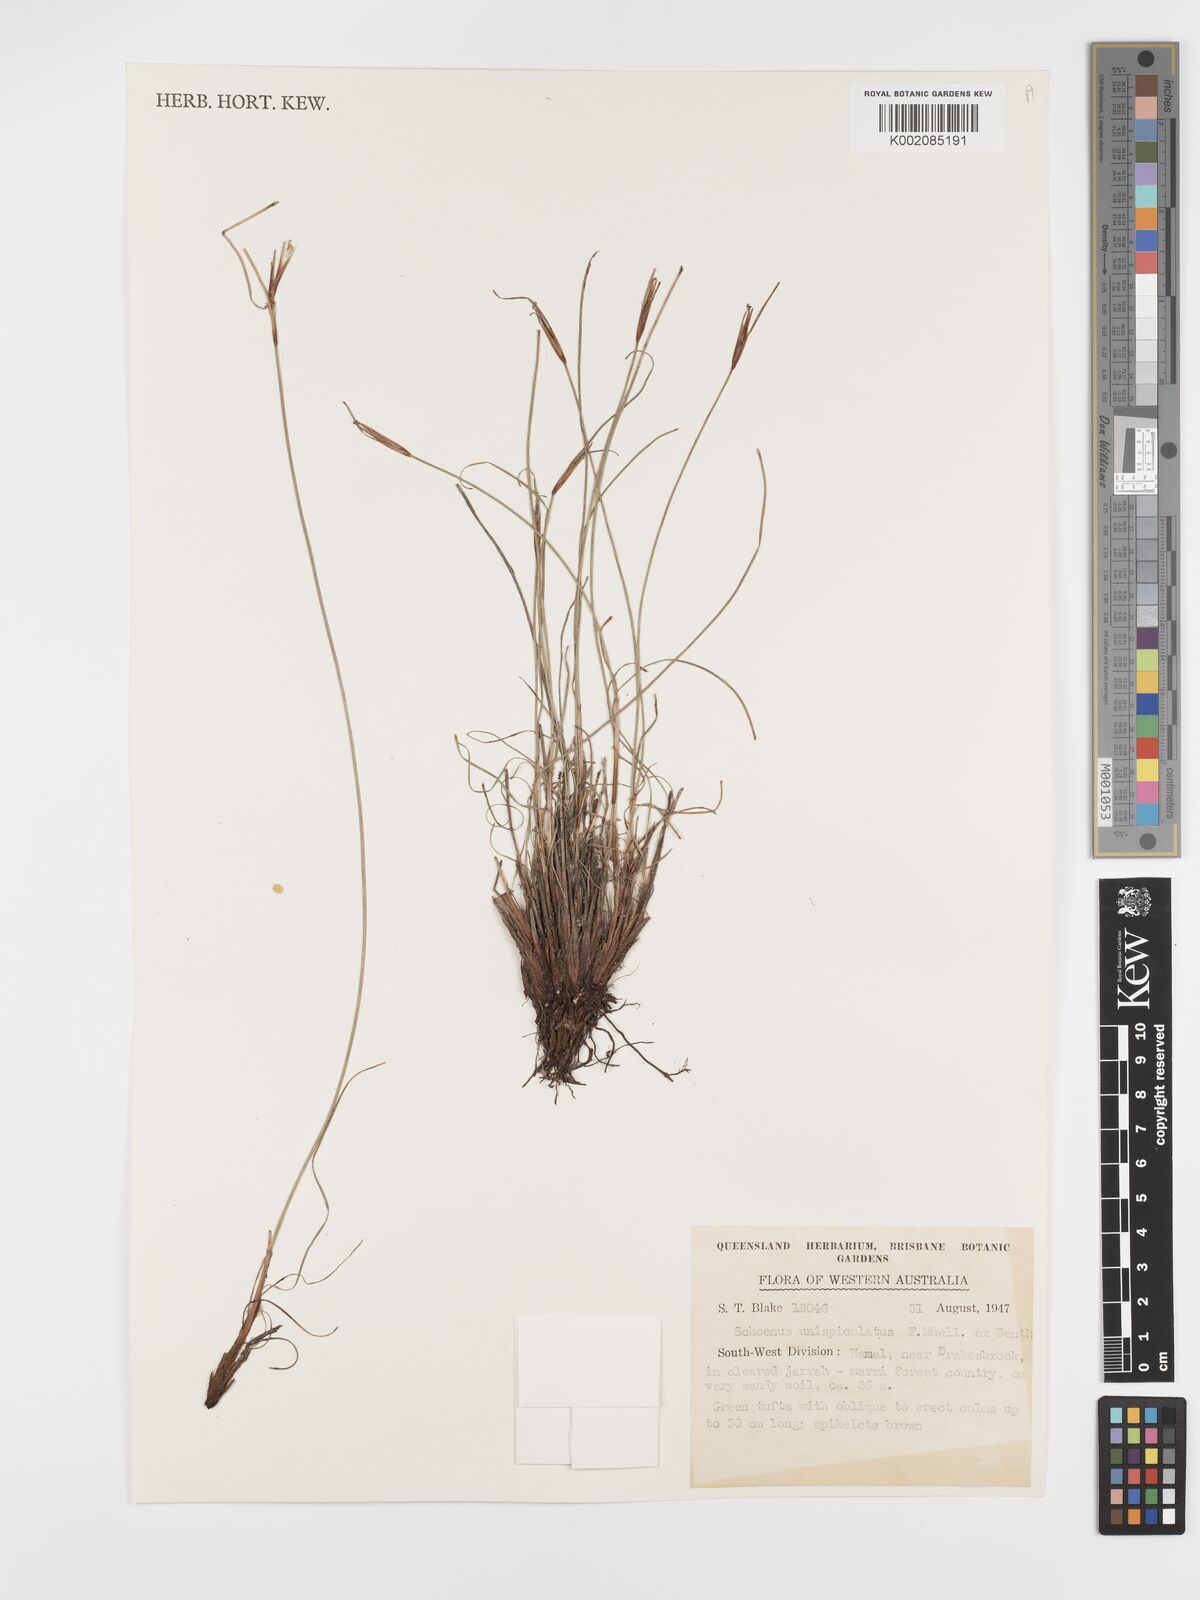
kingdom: Plantae
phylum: Tracheophyta
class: Liliopsida
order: Poales
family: Cyperaceae
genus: Schoenus
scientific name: Schoenus unispiculatus
